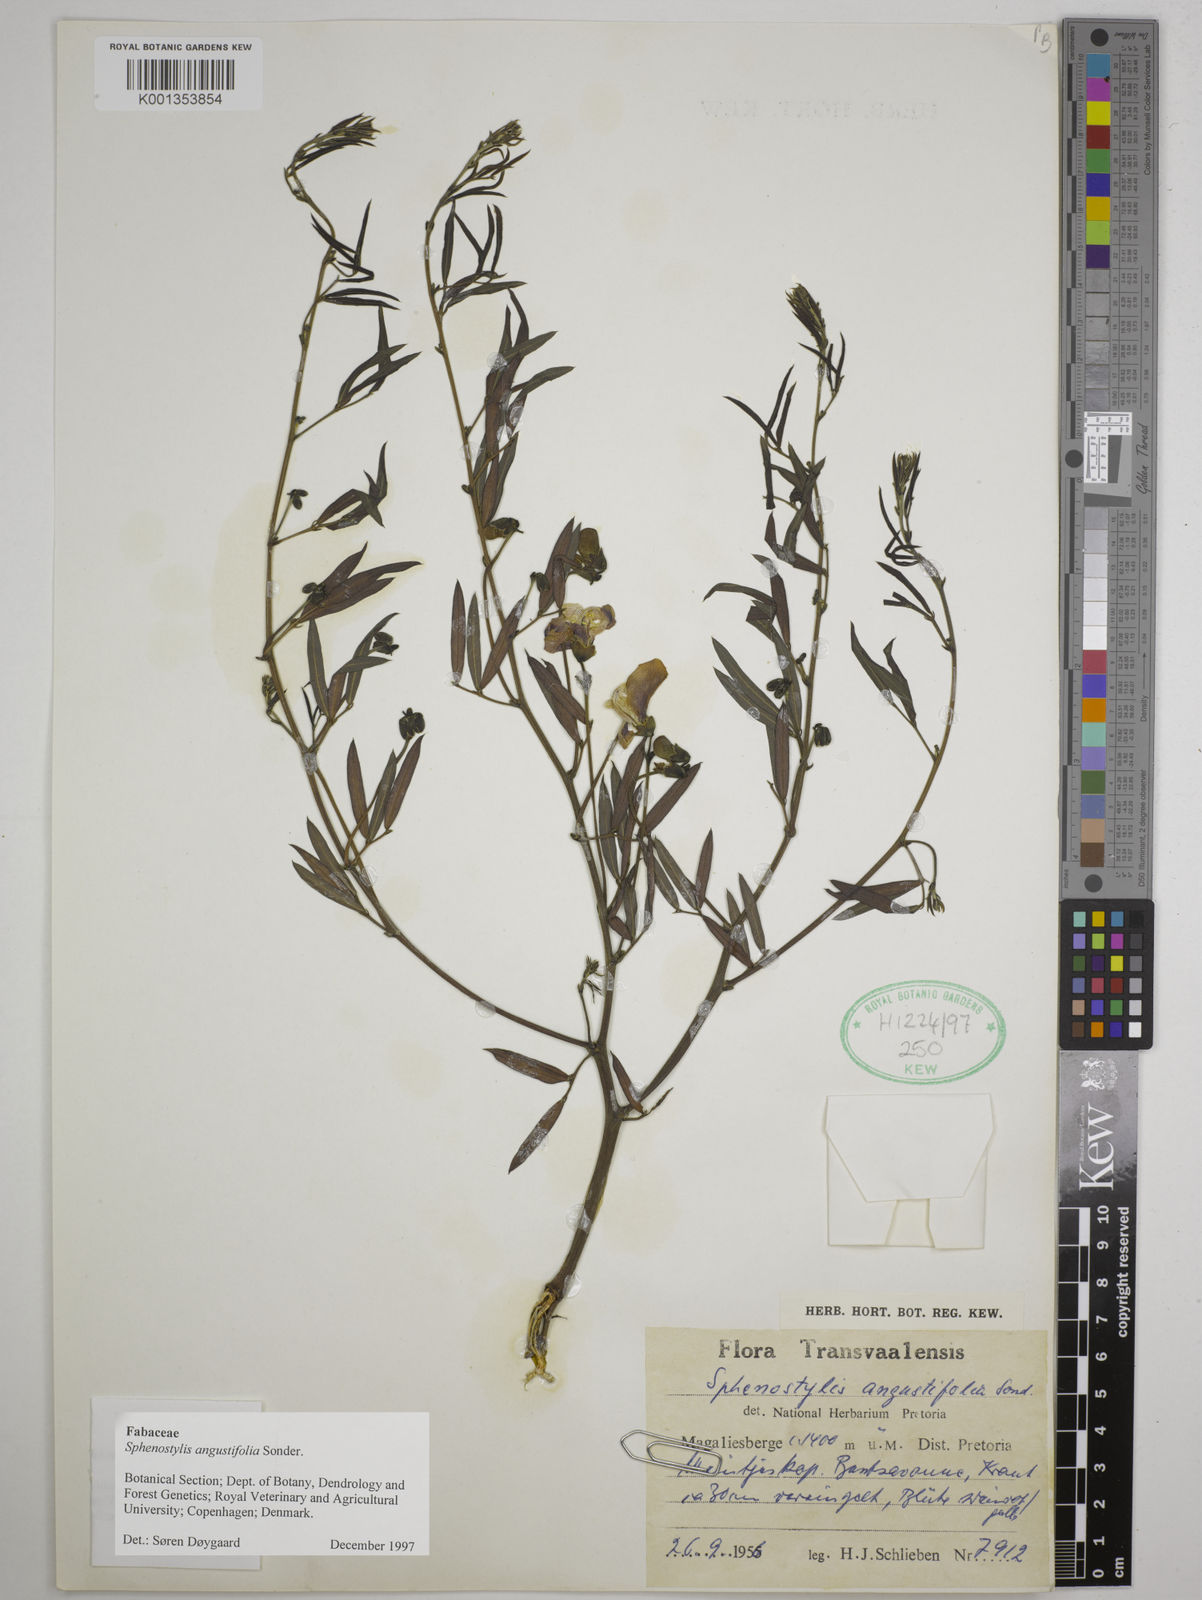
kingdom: Plantae
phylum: Tracheophyta
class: Magnoliopsida
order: Fabales
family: Fabaceae
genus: Sphenostylis
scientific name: Sphenostylis angustifolia
